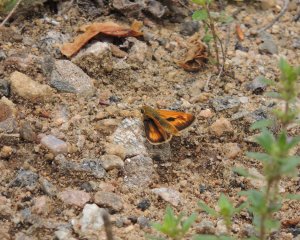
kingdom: Animalia
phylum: Arthropoda
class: Insecta
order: Lepidoptera
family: Hesperiidae
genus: Polites
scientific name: Polites
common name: Long Dash Skipper
